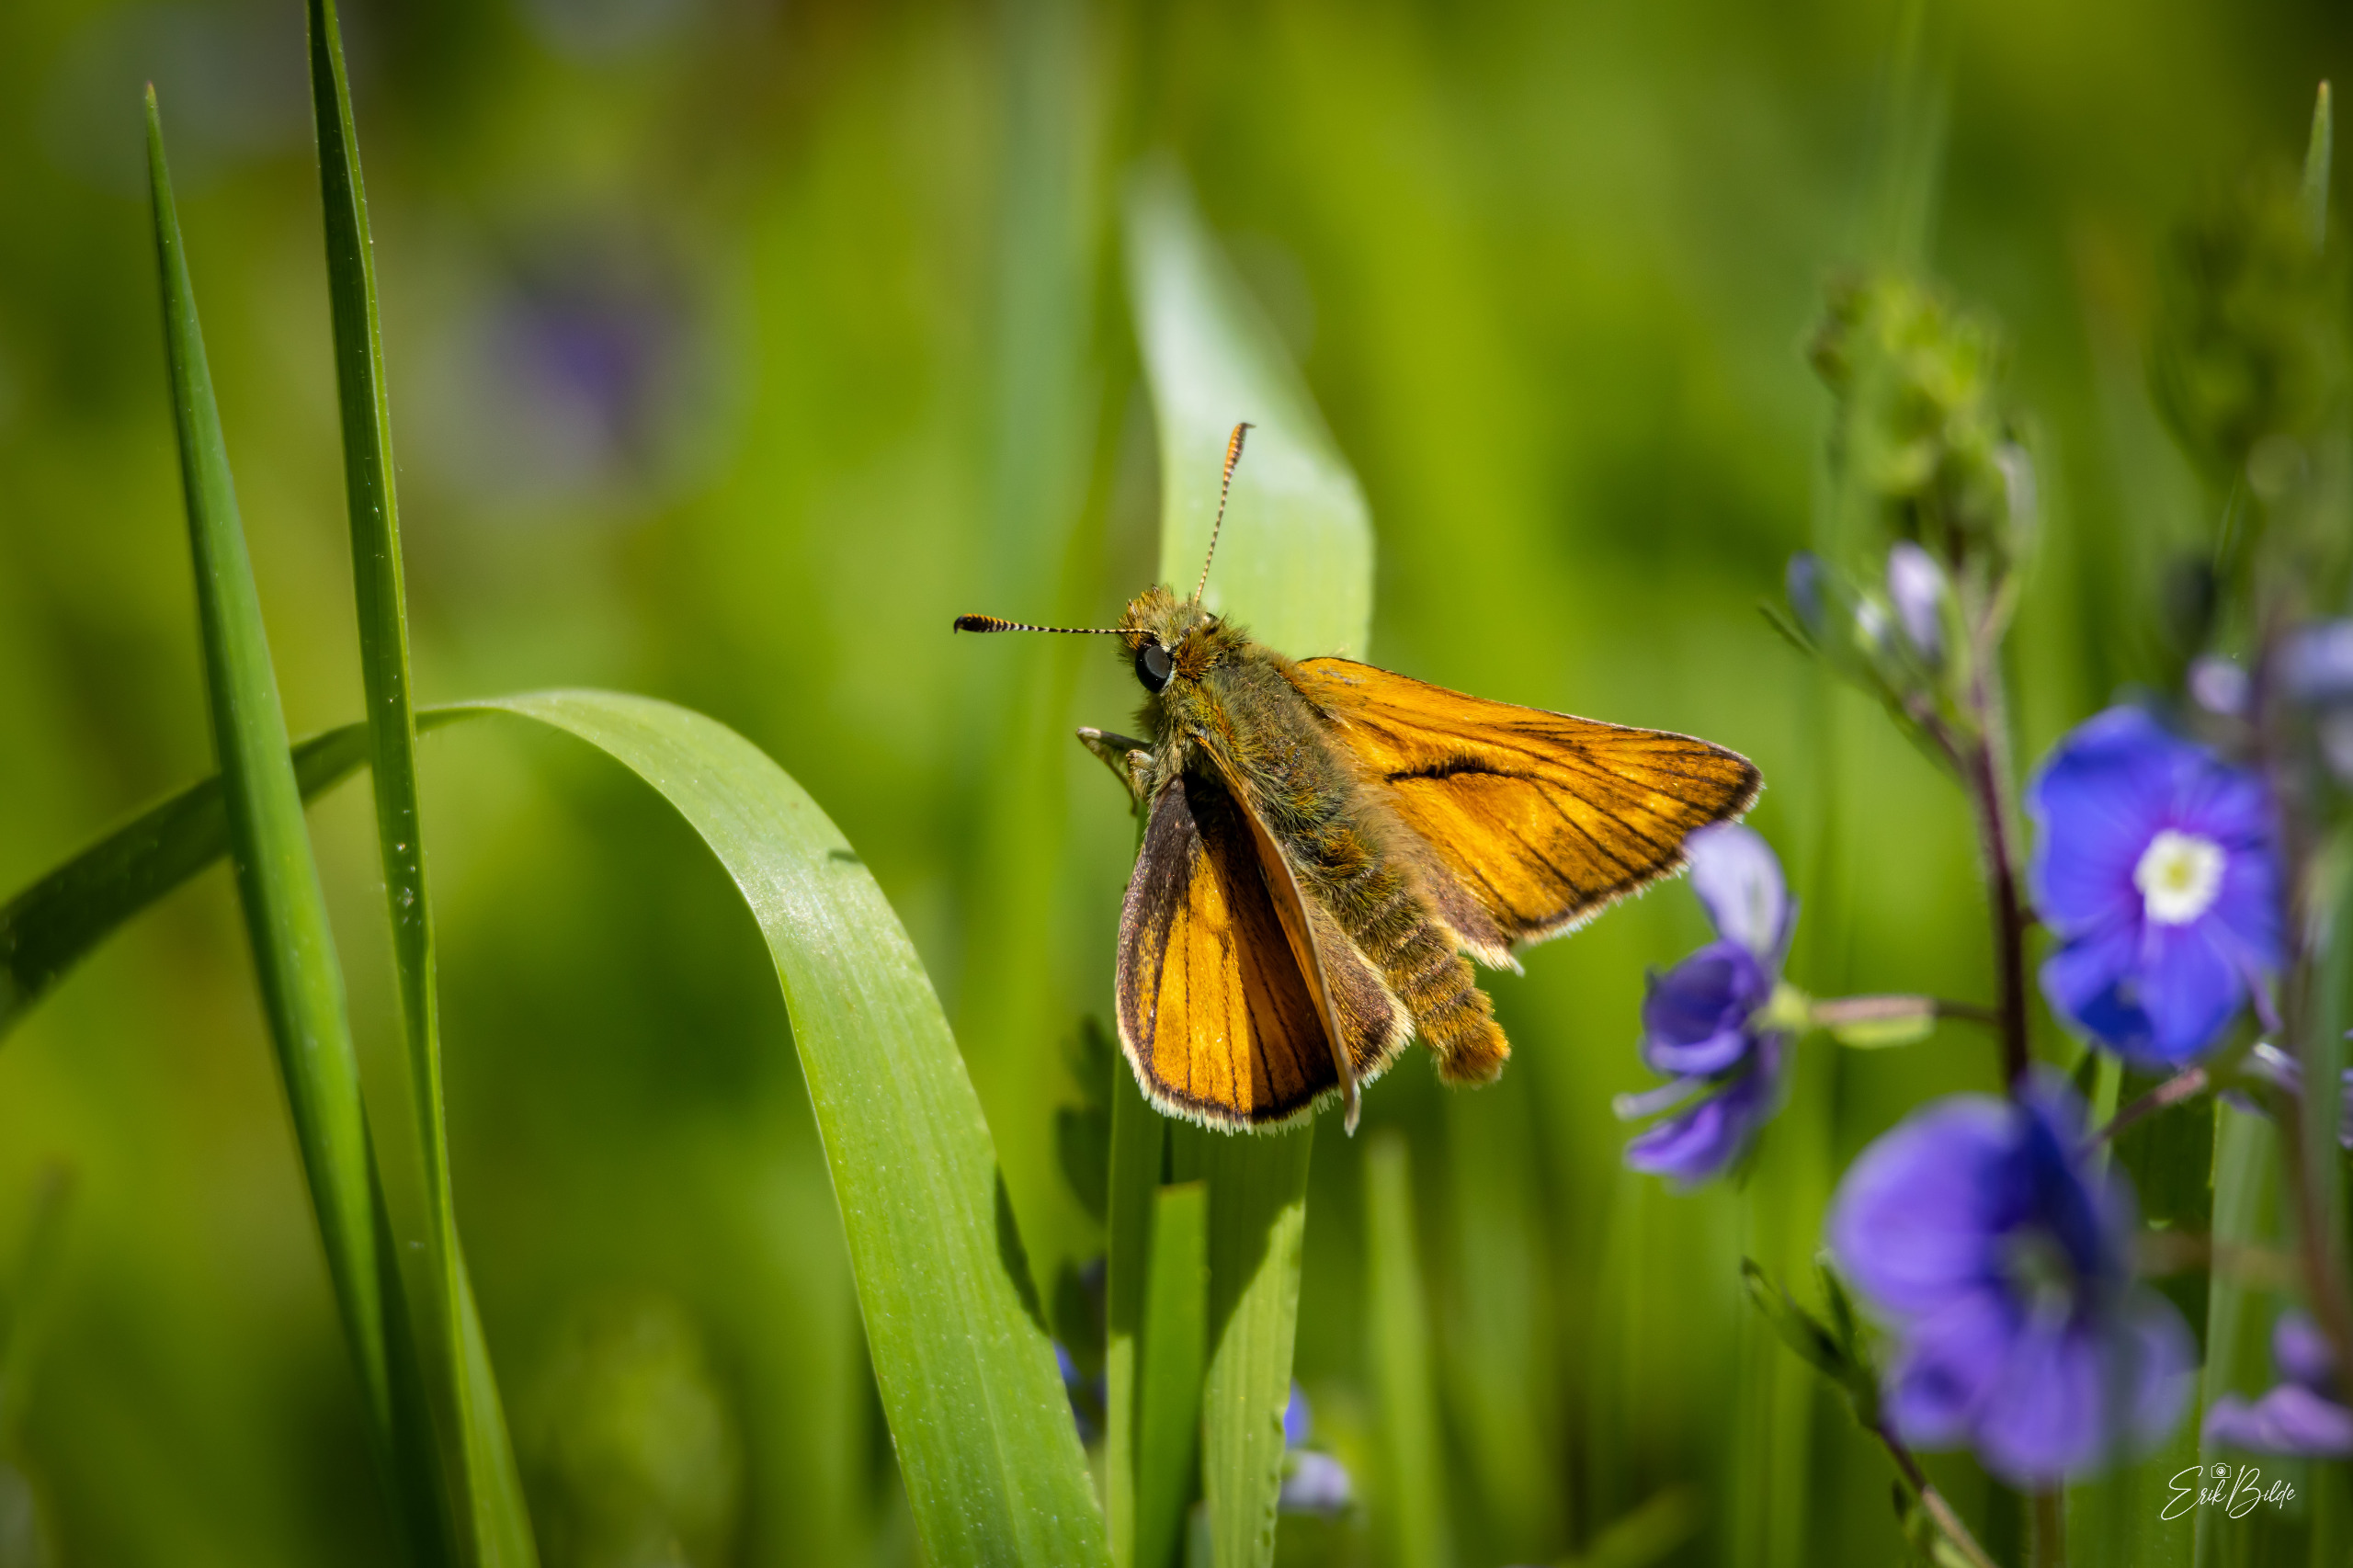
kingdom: Animalia
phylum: Arthropoda
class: Insecta
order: Lepidoptera
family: Hesperiidae
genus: Ochlodes
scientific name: Ochlodes venata
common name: Stor bredpande
